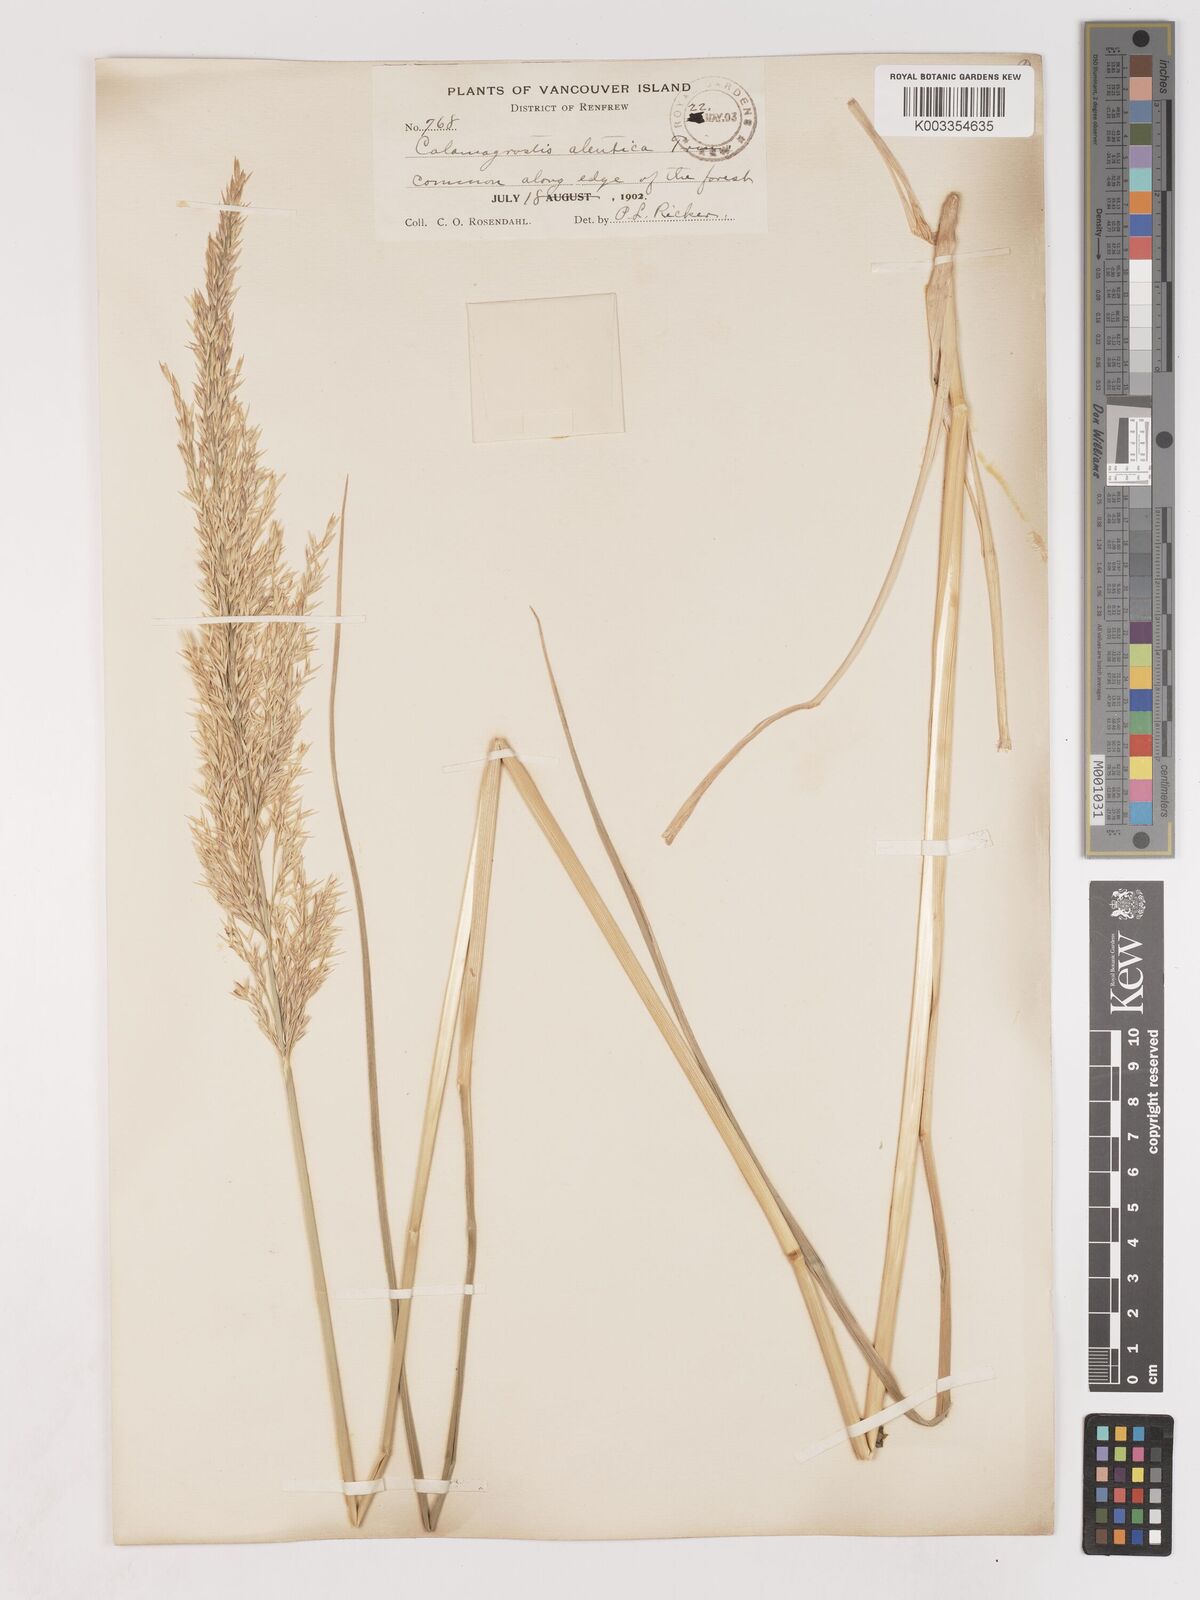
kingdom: Plantae
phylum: Tracheophyta
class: Liliopsida
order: Poales
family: Poaceae
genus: Calamagrostis
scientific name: Calamagrostis nutkaensis
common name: Pacific reed grass
